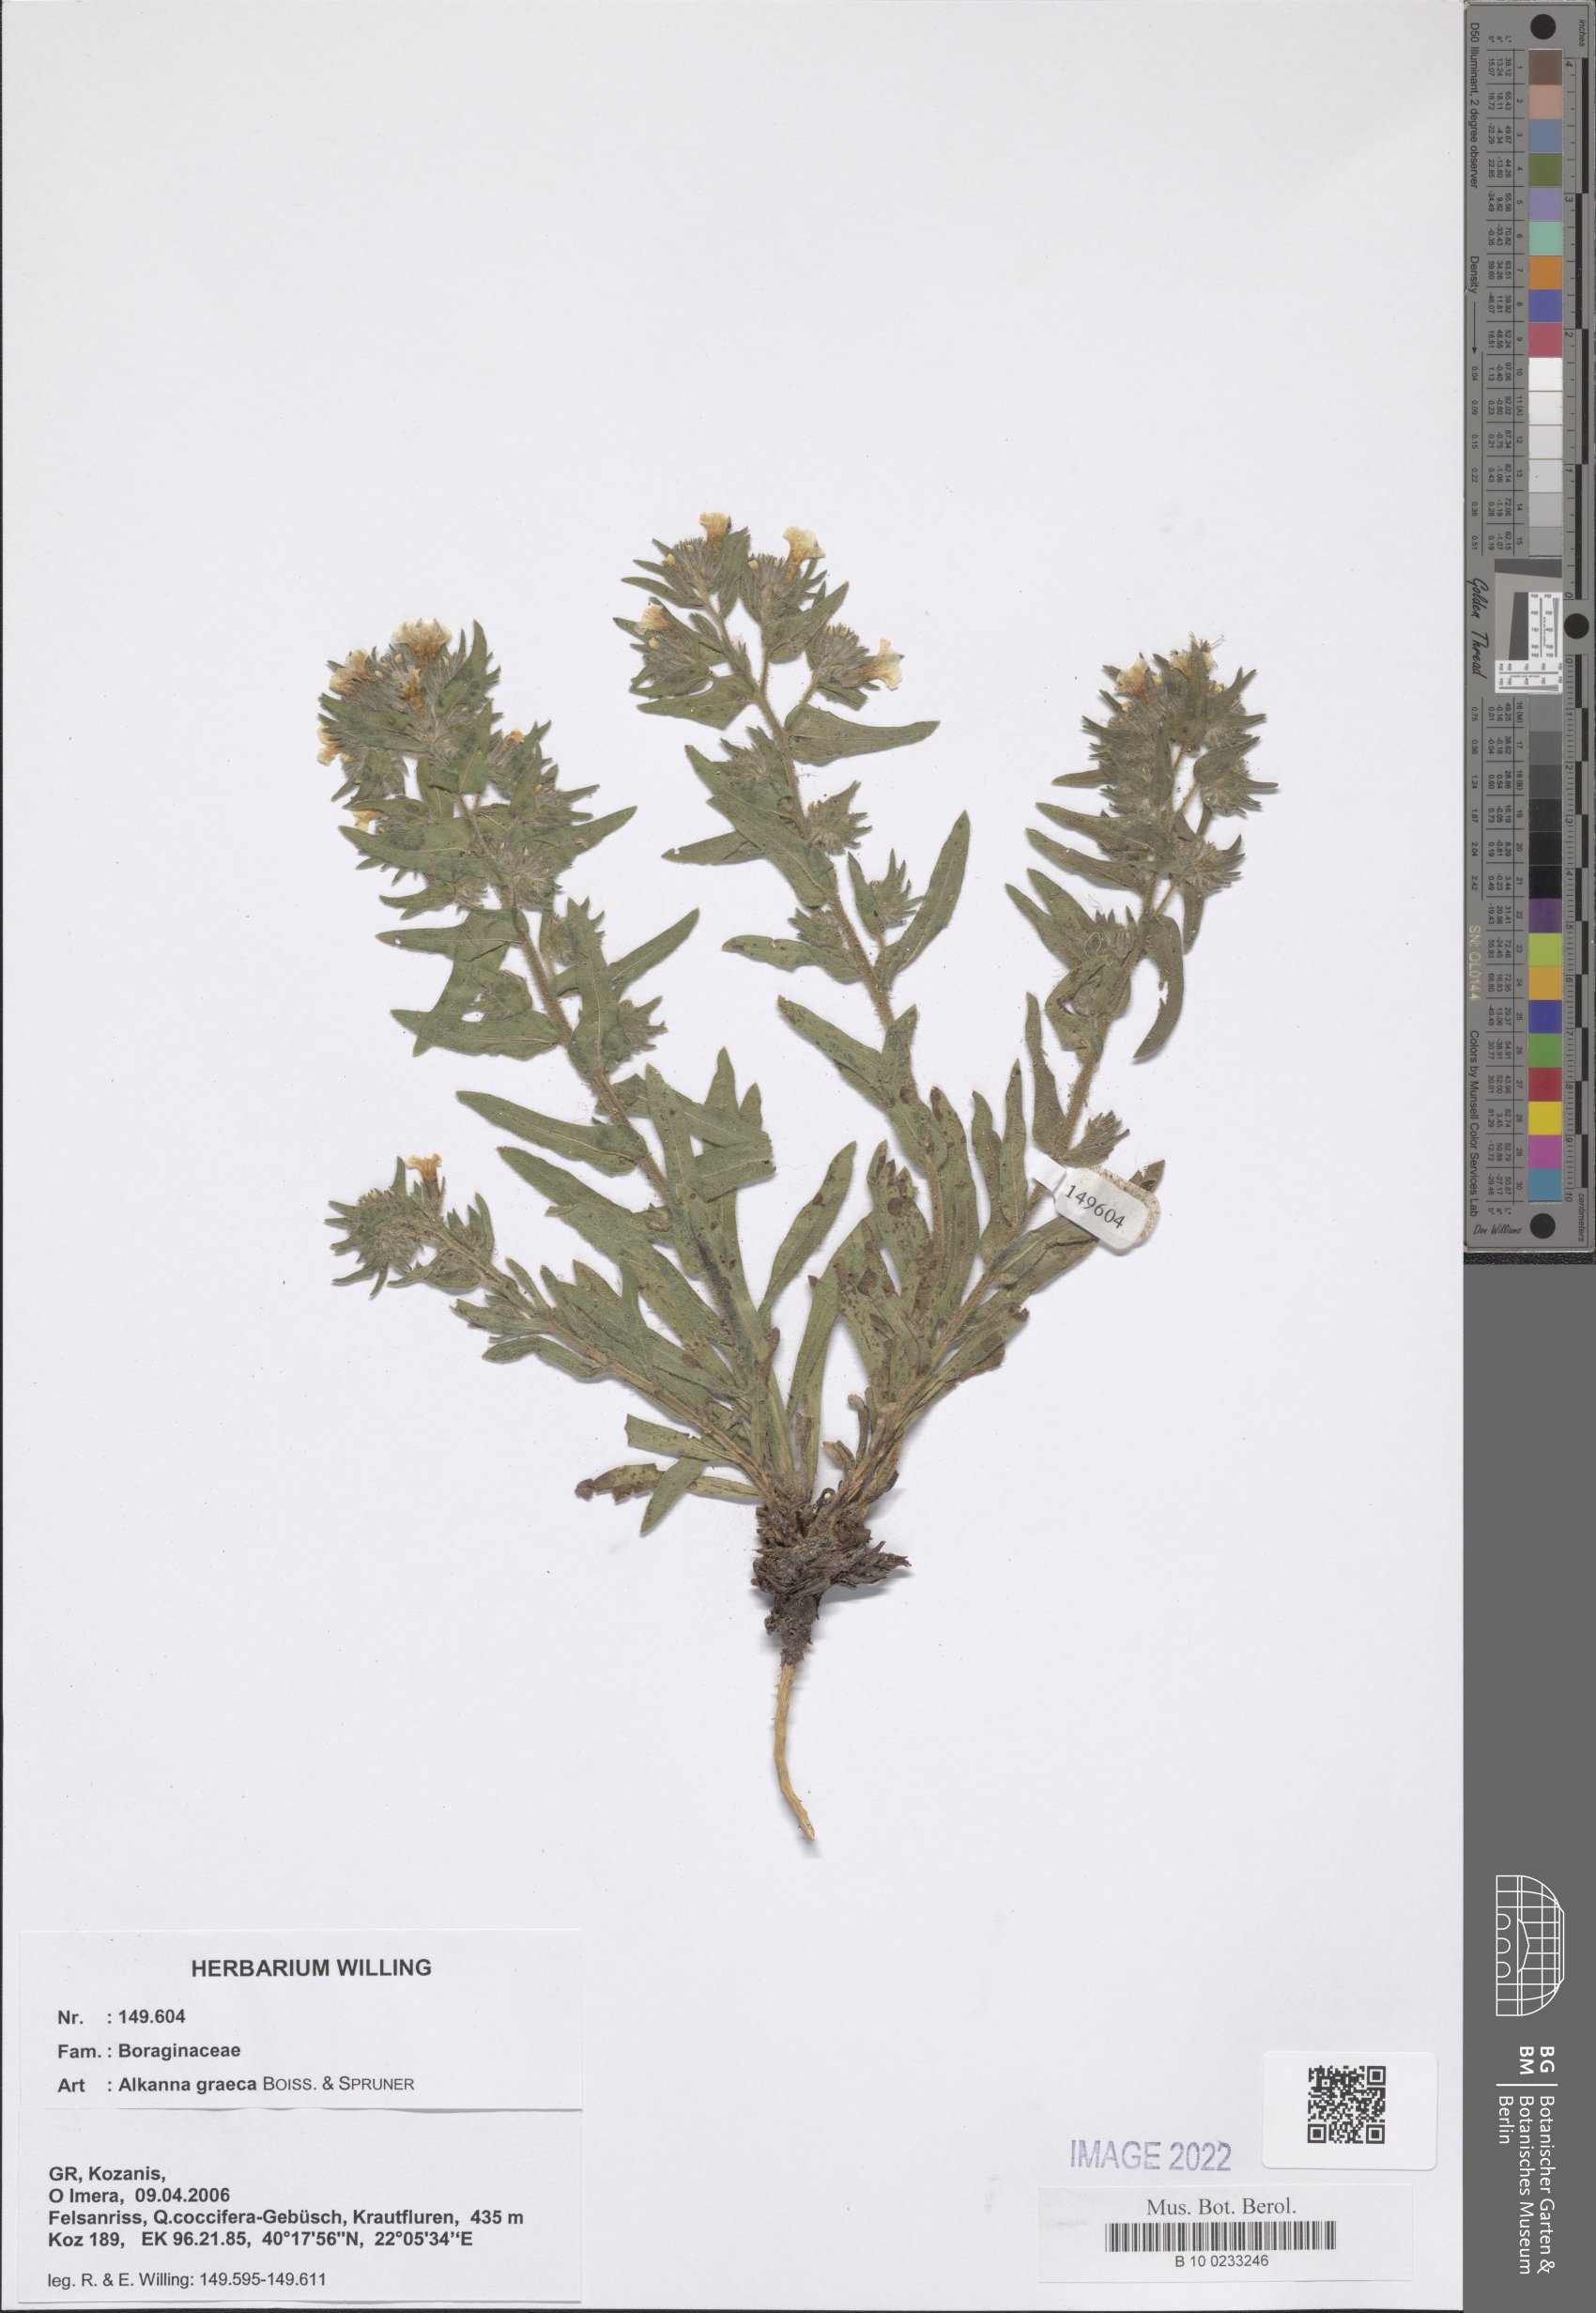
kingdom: Plantae
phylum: Tracheophyta
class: Magnoliopsida
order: Boraginales
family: Boraginaceae
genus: Alkanna
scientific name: Alkanna graeca
